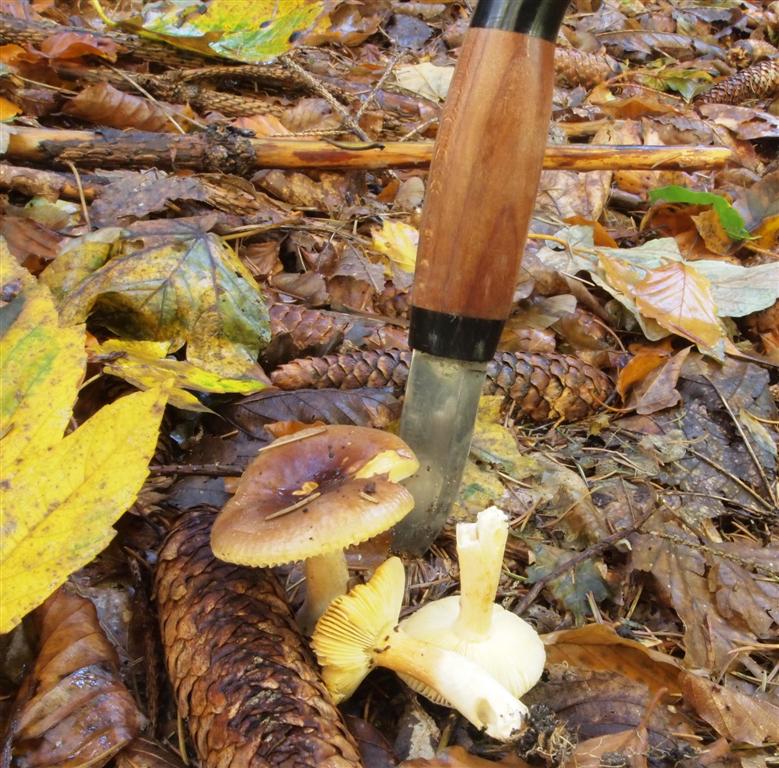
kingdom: Fungi
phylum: Basidiomycota
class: Agaricomycetes
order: Russulales
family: Russulaceae
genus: Russula
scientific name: Russula puellaris
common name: gulstokket skørhat
